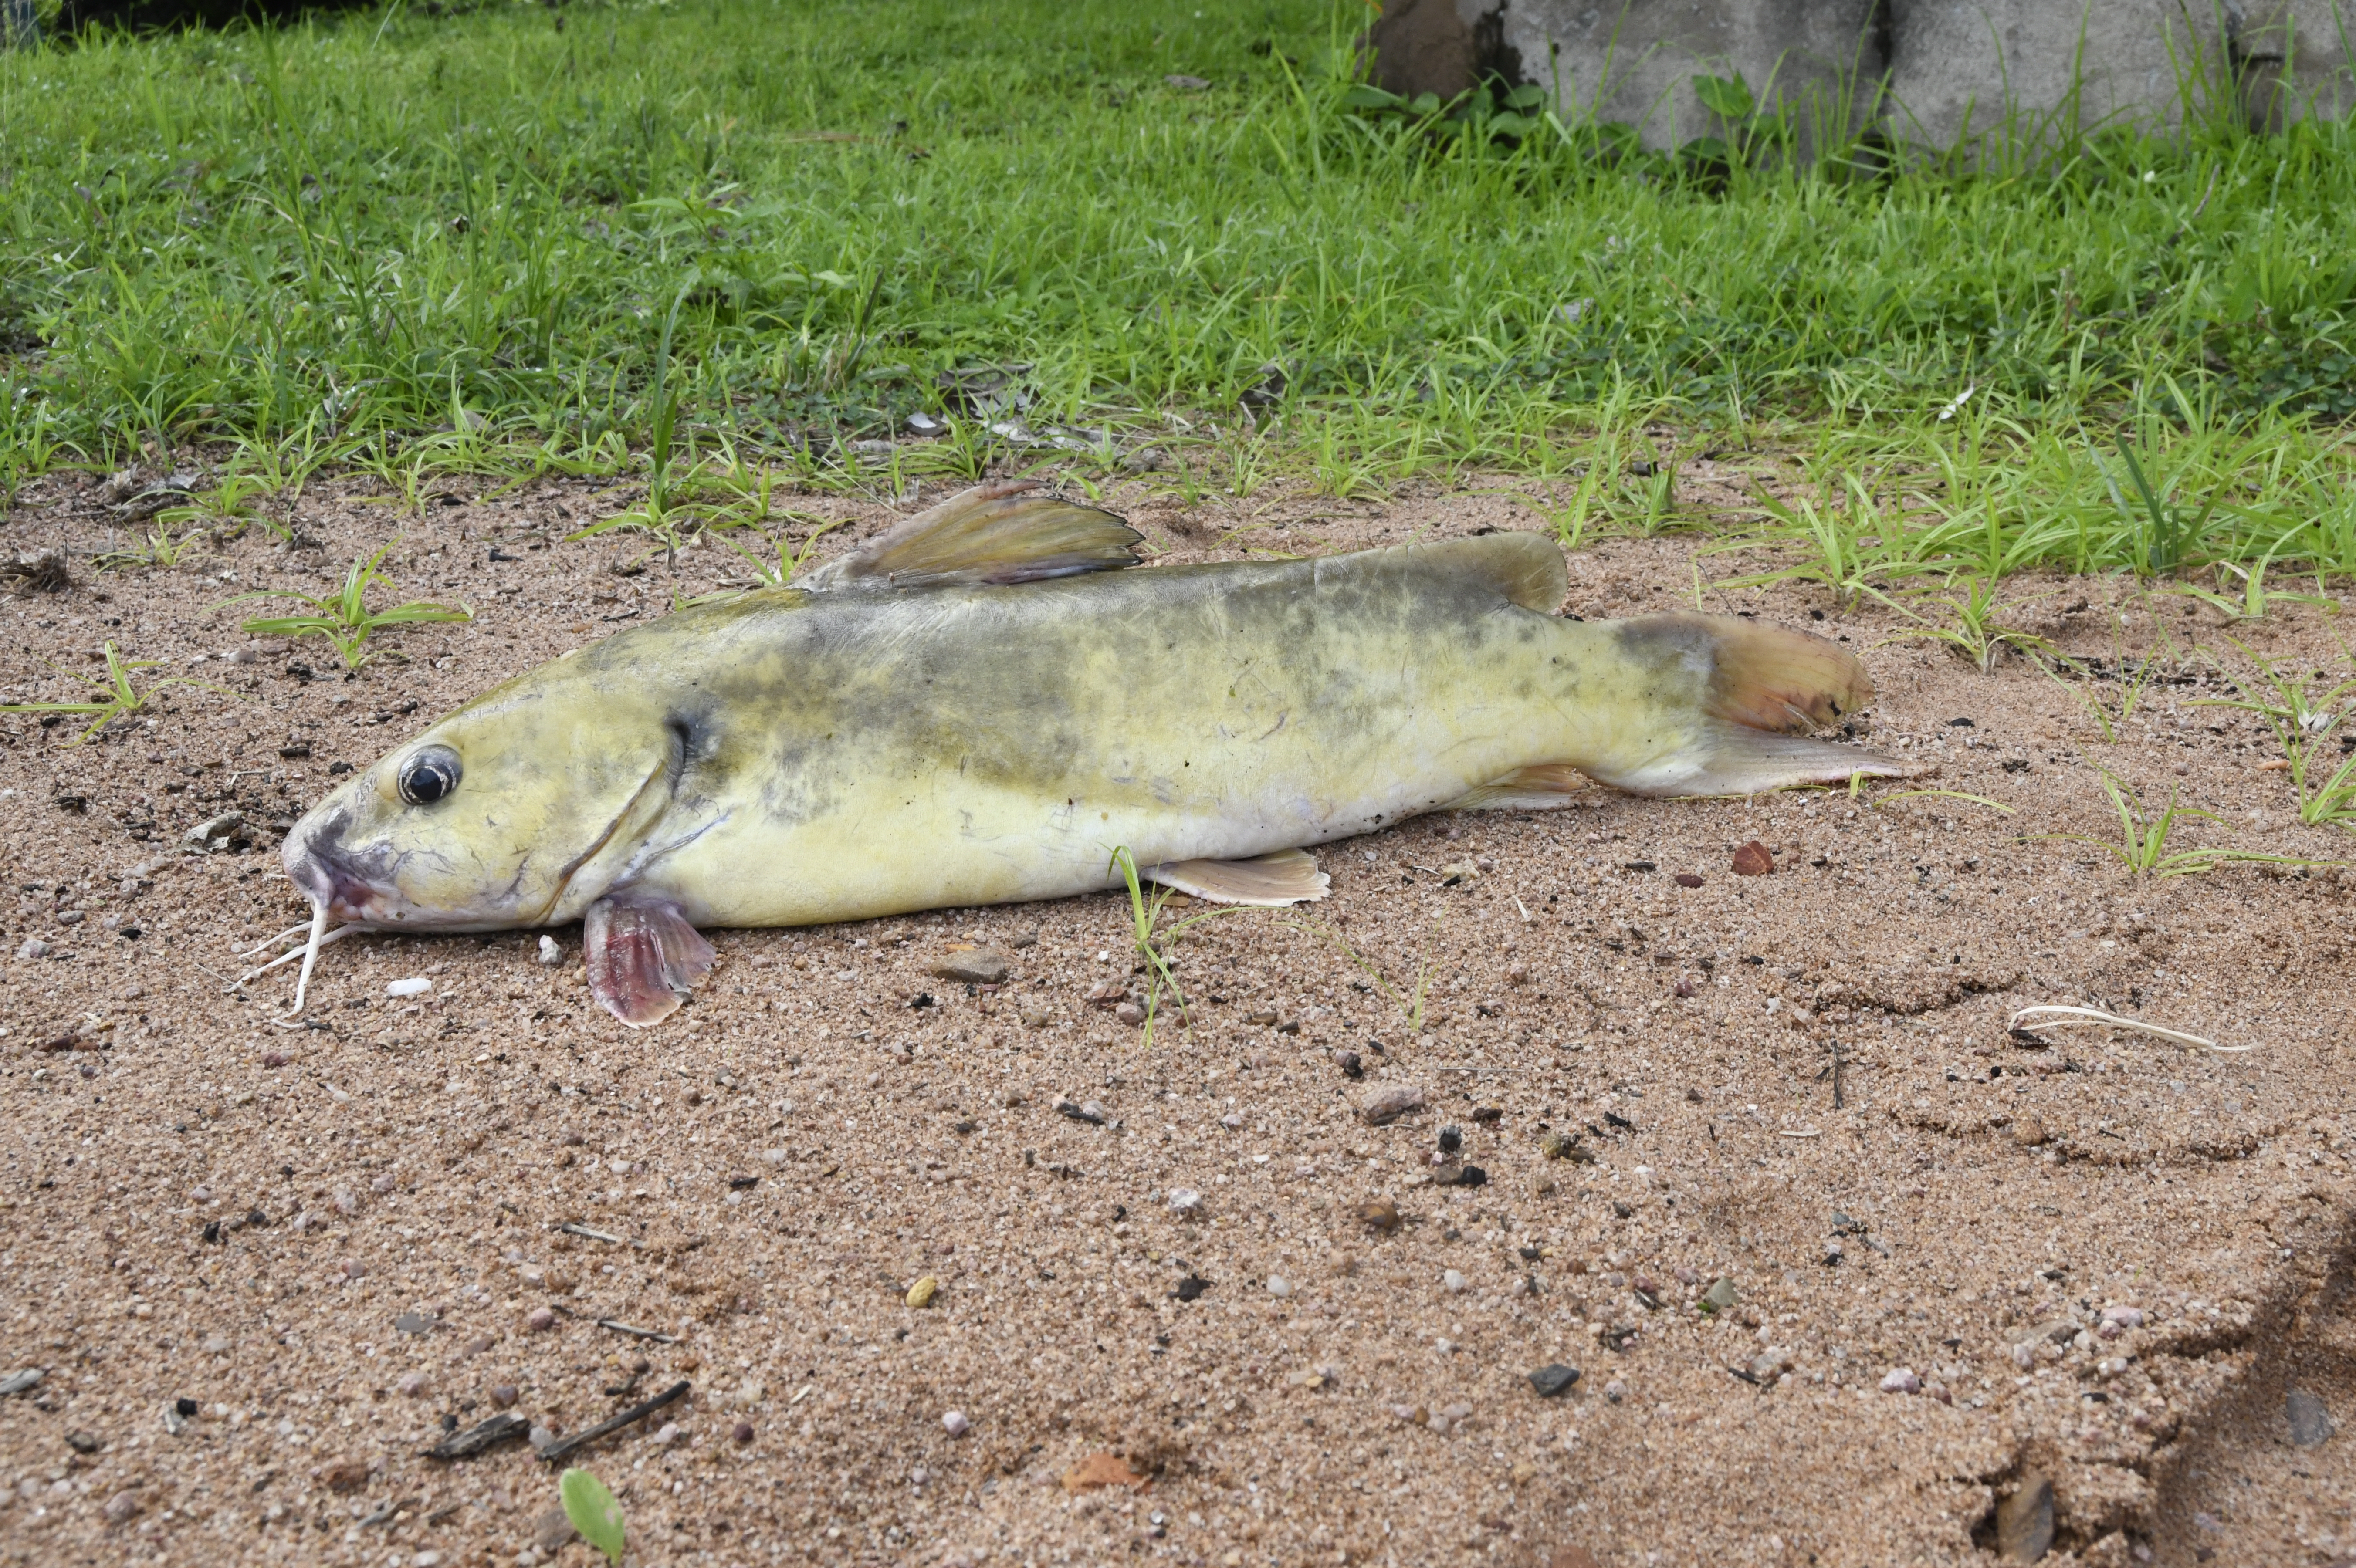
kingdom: Animalia
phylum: Chordata
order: Siluriformes
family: Claroteidae
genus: Chrysichthys
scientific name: Chrysichthys
